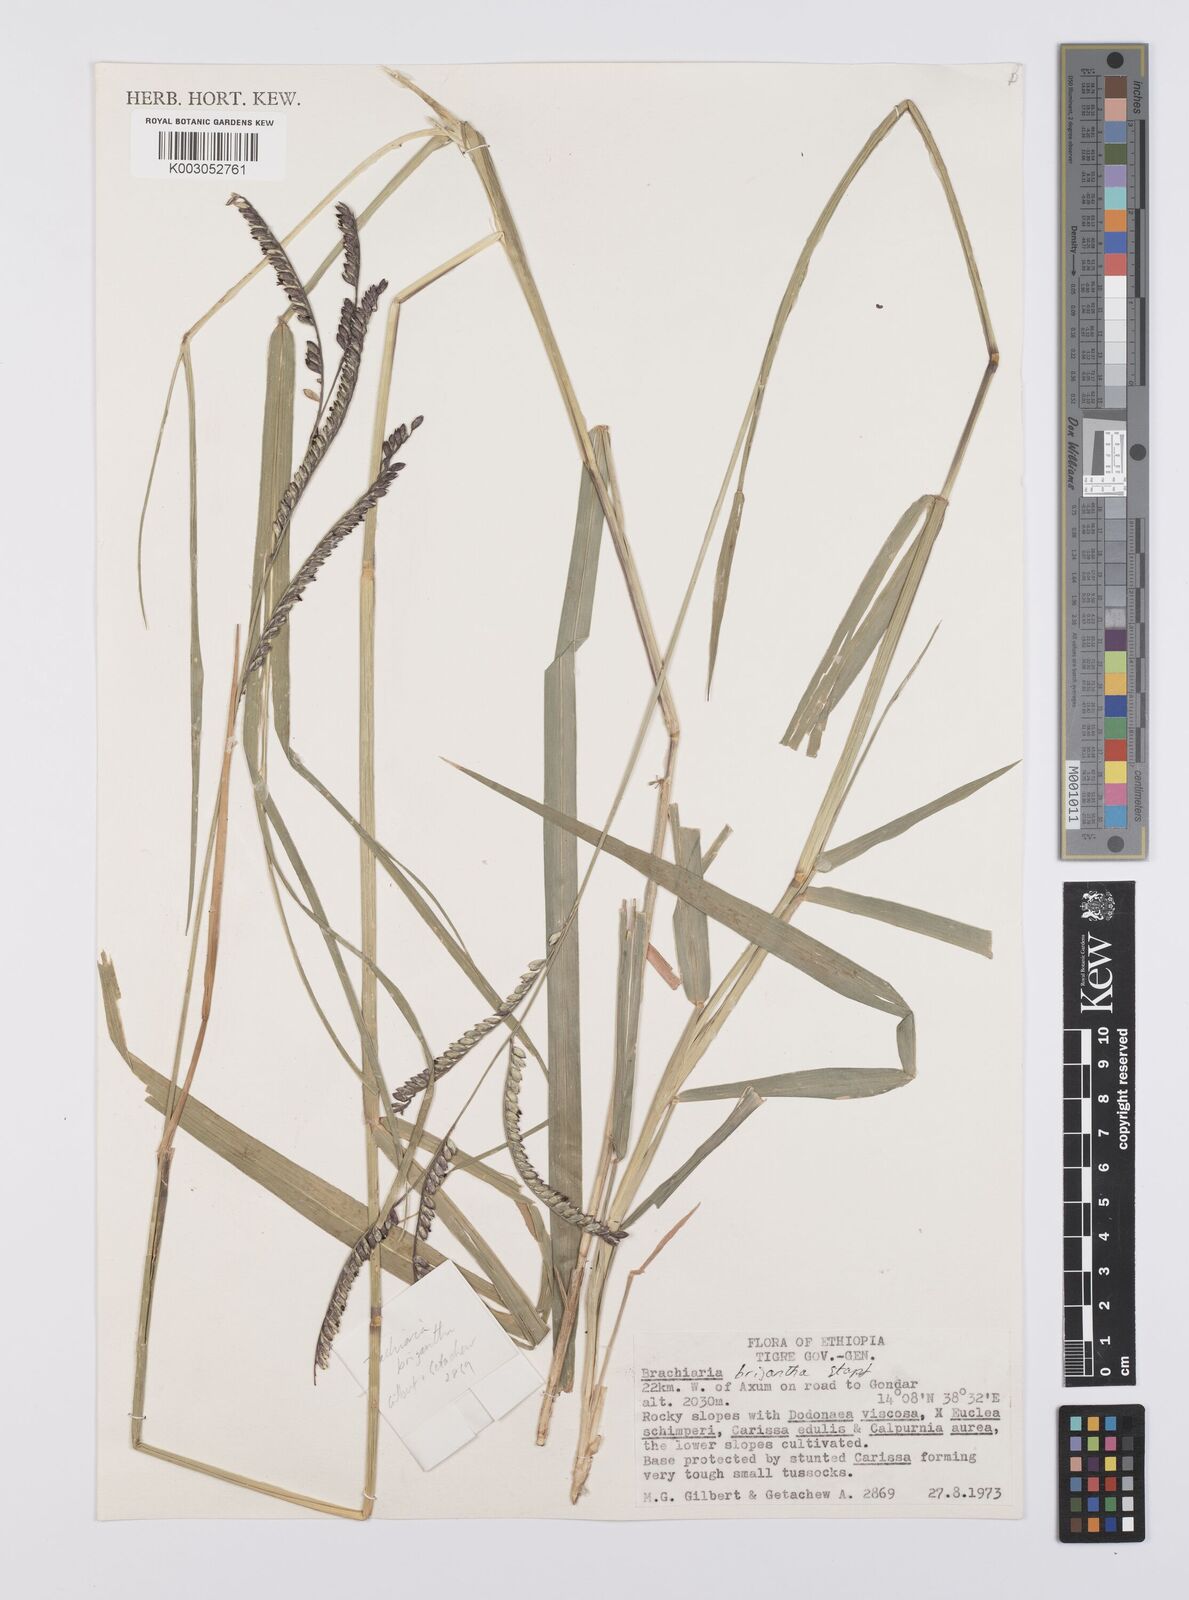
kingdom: Plantae
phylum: Tracheophyta
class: Liliopsida
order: Poales
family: Poaceae
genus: Urochloa
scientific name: Urochloa brizantha
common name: Palisade signalgrass
